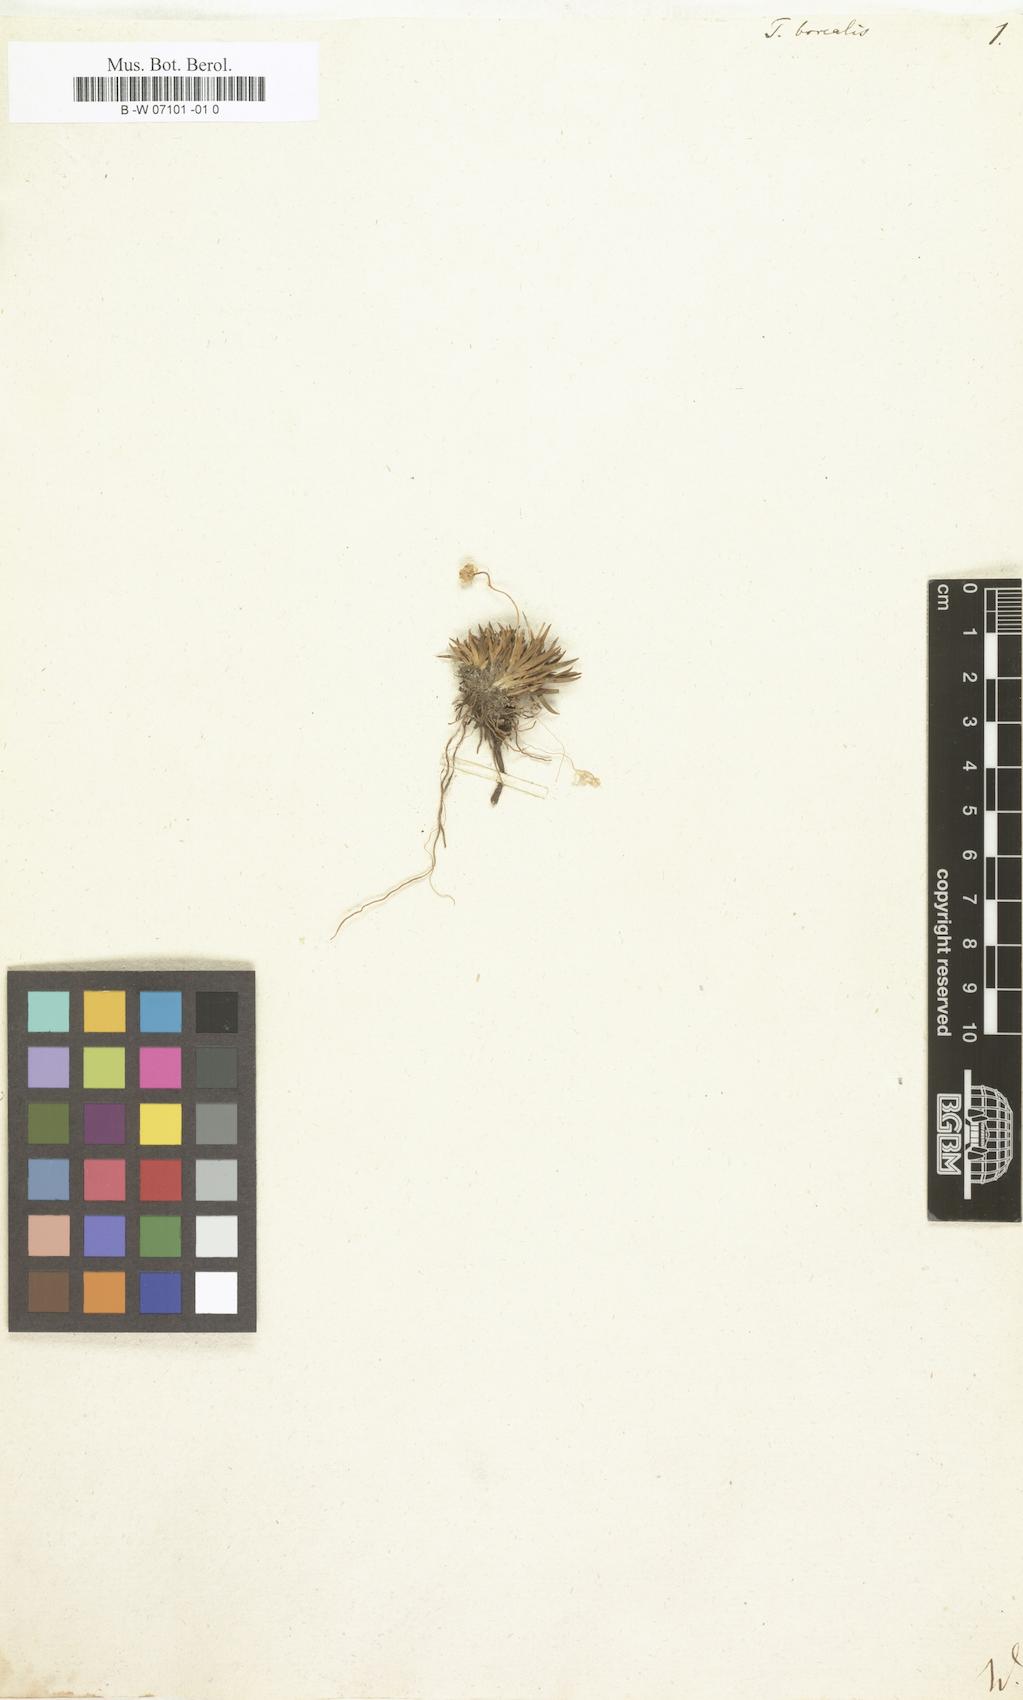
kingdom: Plantae
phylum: Tracheophyta
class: Liliopsida
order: Alismatales
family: Tofieldiaceae
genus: Tofieldia
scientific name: Tofieldia pusilla
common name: Scottish false asphodel
